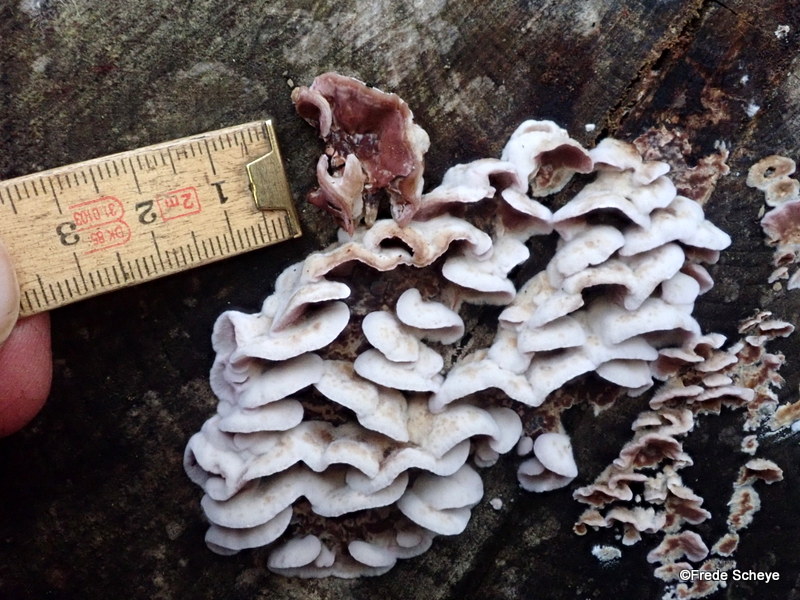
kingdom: Fungi
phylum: Basidiomycota
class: Agaricomycetes
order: Agaricales
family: Cyphellaceae
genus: Chondrostereum
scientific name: Chondrostereum purpureum
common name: purpurlædersvamp
